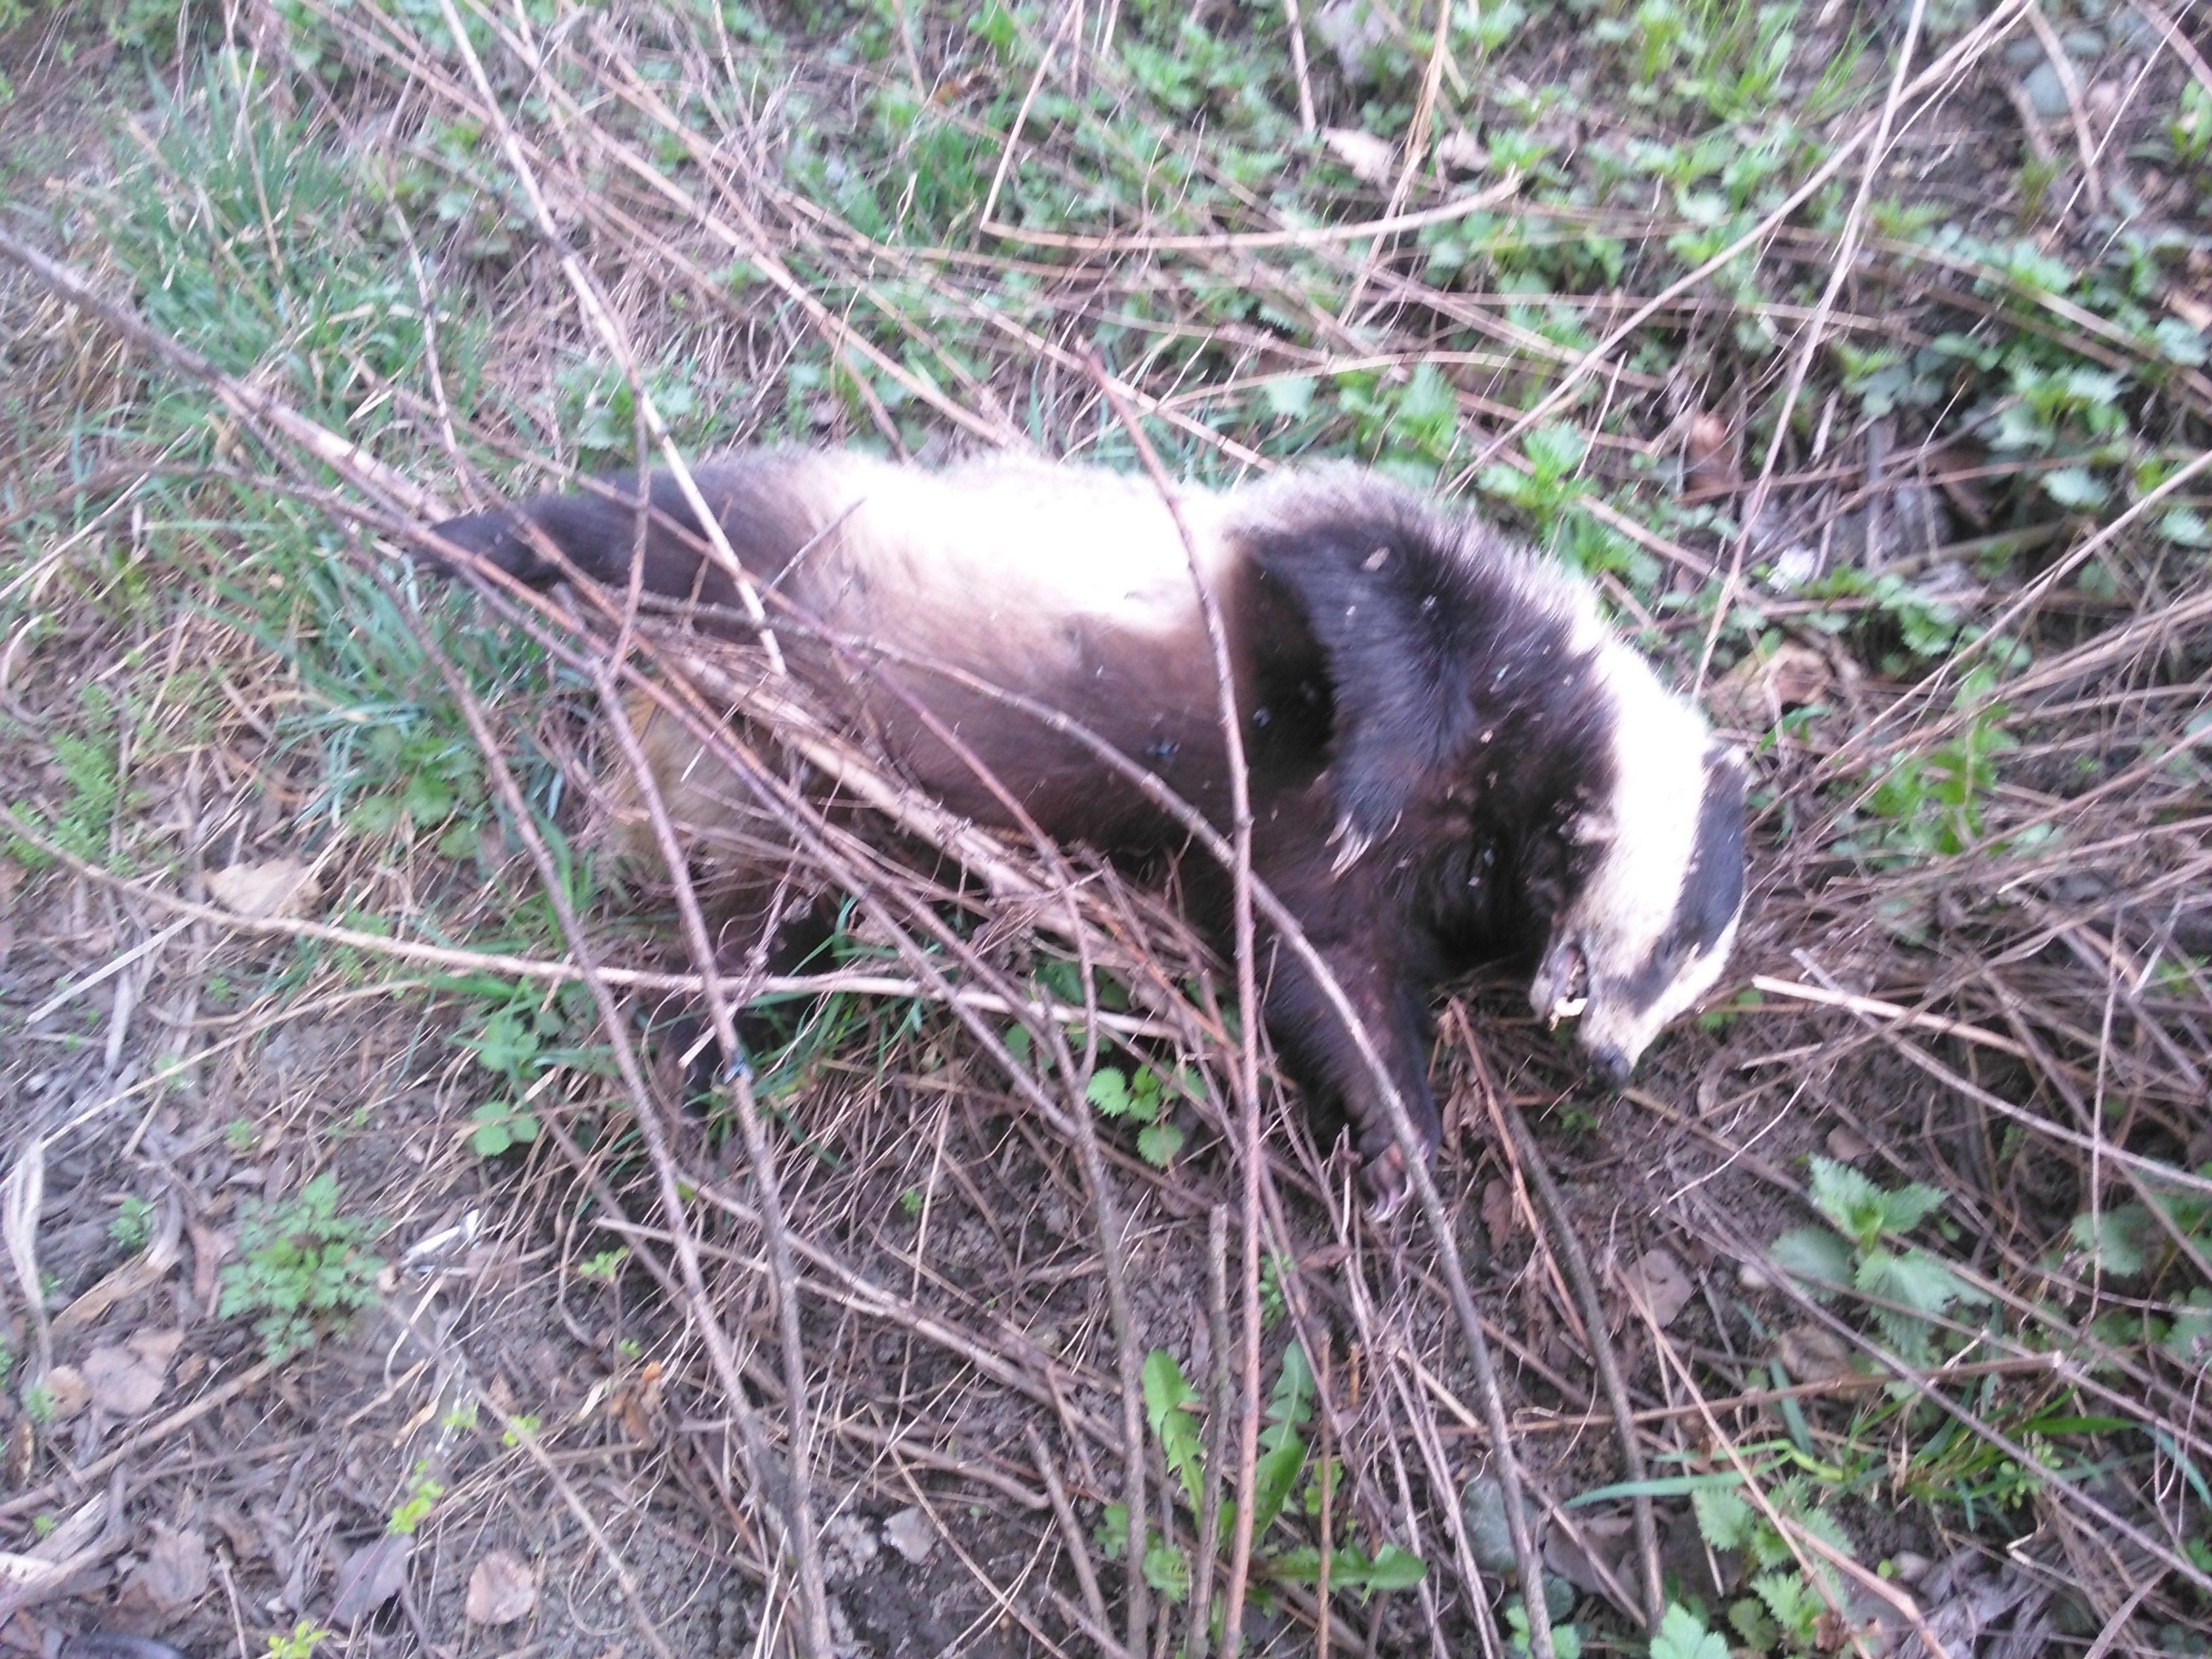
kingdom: Animalia
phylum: Chordata
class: Mammalia
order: Carnivora
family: Mustelidae
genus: Meles
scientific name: Meles meles
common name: Eurasian badger
